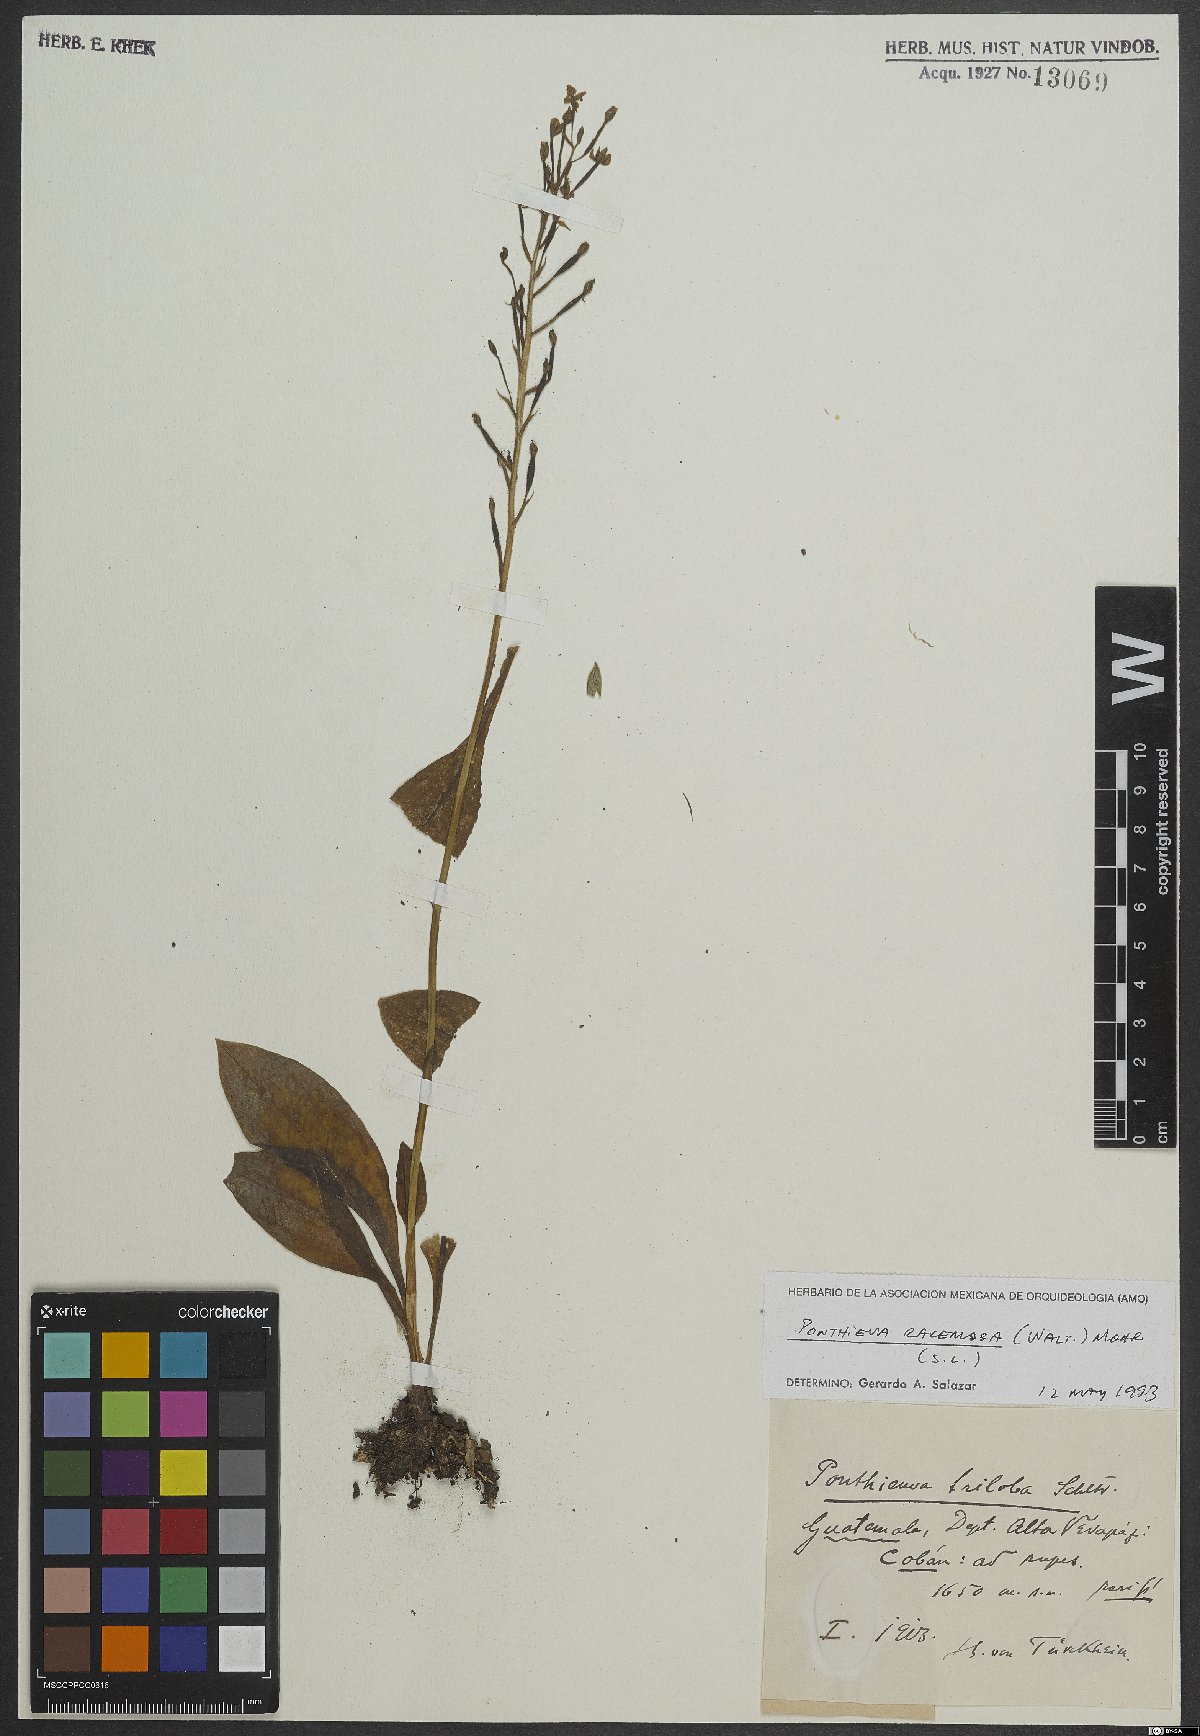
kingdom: Plantae
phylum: Tracheophyta
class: Liliopsida
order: Asparagales
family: Orchidaceae
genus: Ponthieva
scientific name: Ponthieva racemosa
